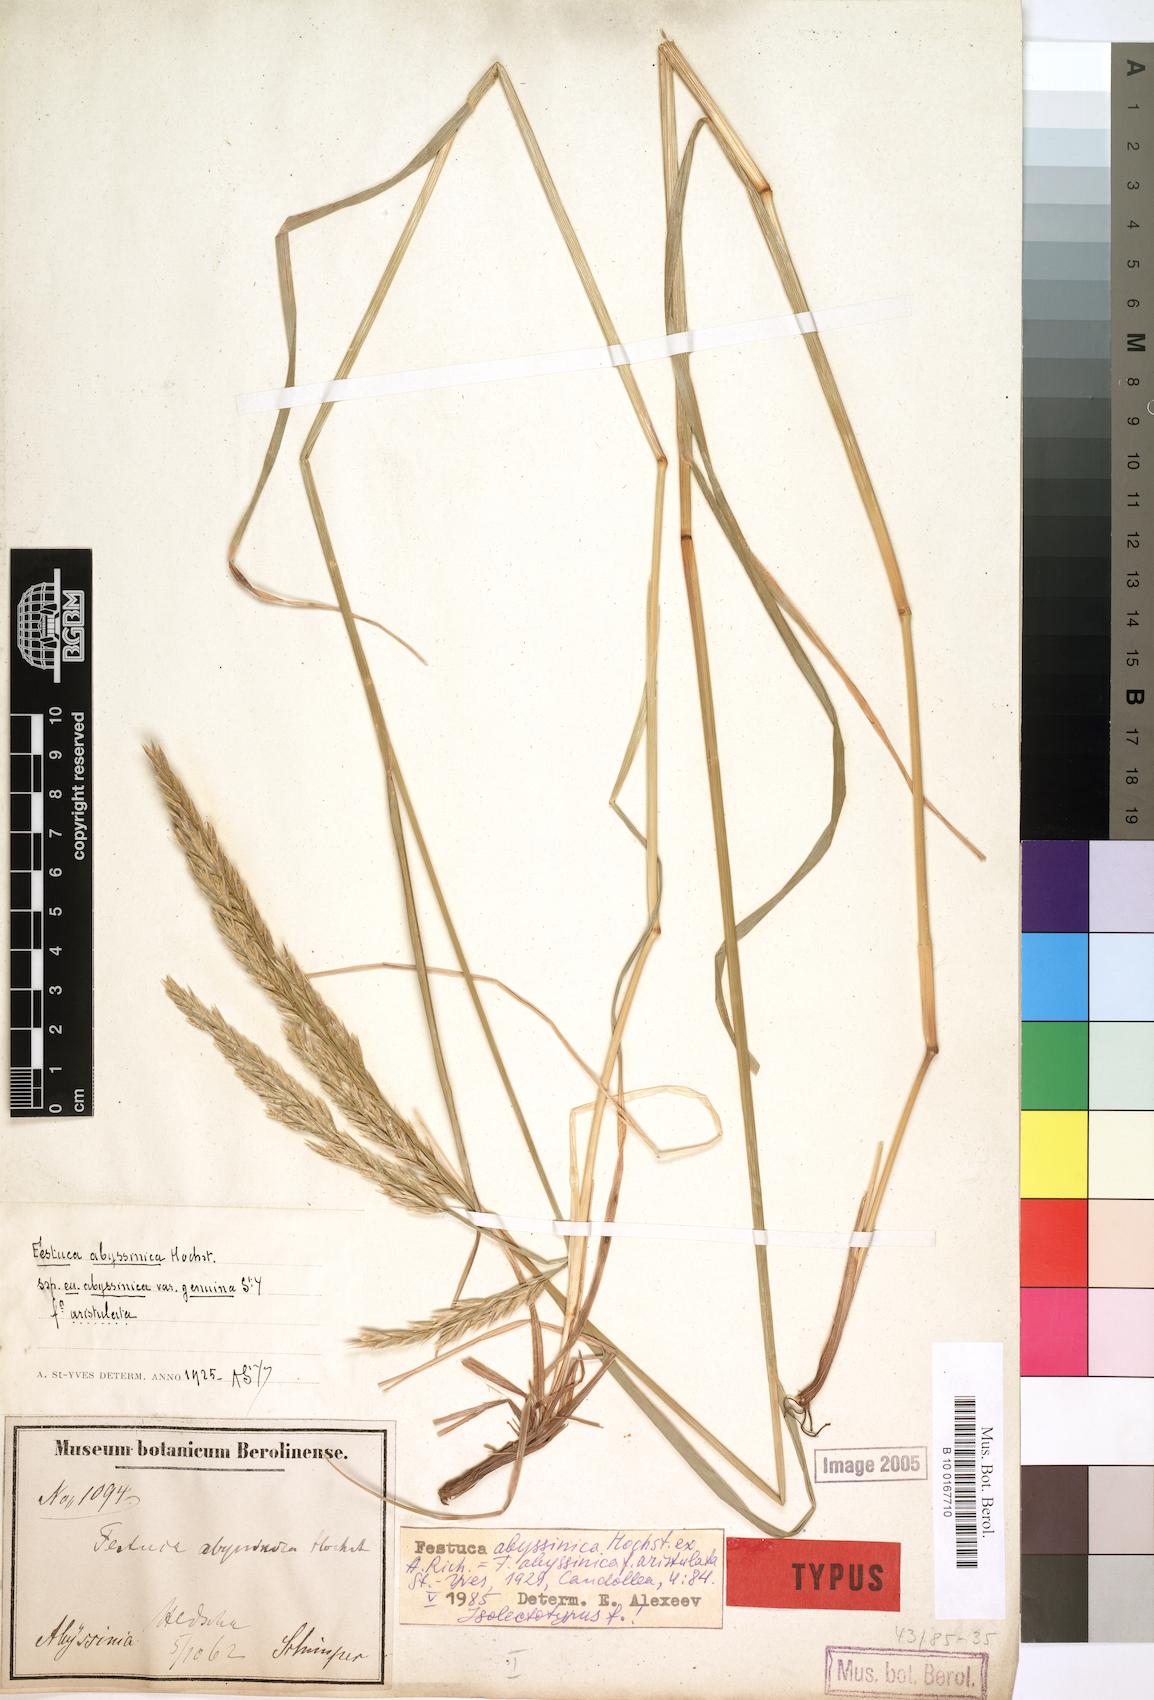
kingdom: Plantae
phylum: Tracheophyta
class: Liliopsida
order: Poales
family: Poaceae
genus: Festuca
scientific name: Festuca abyssinica
